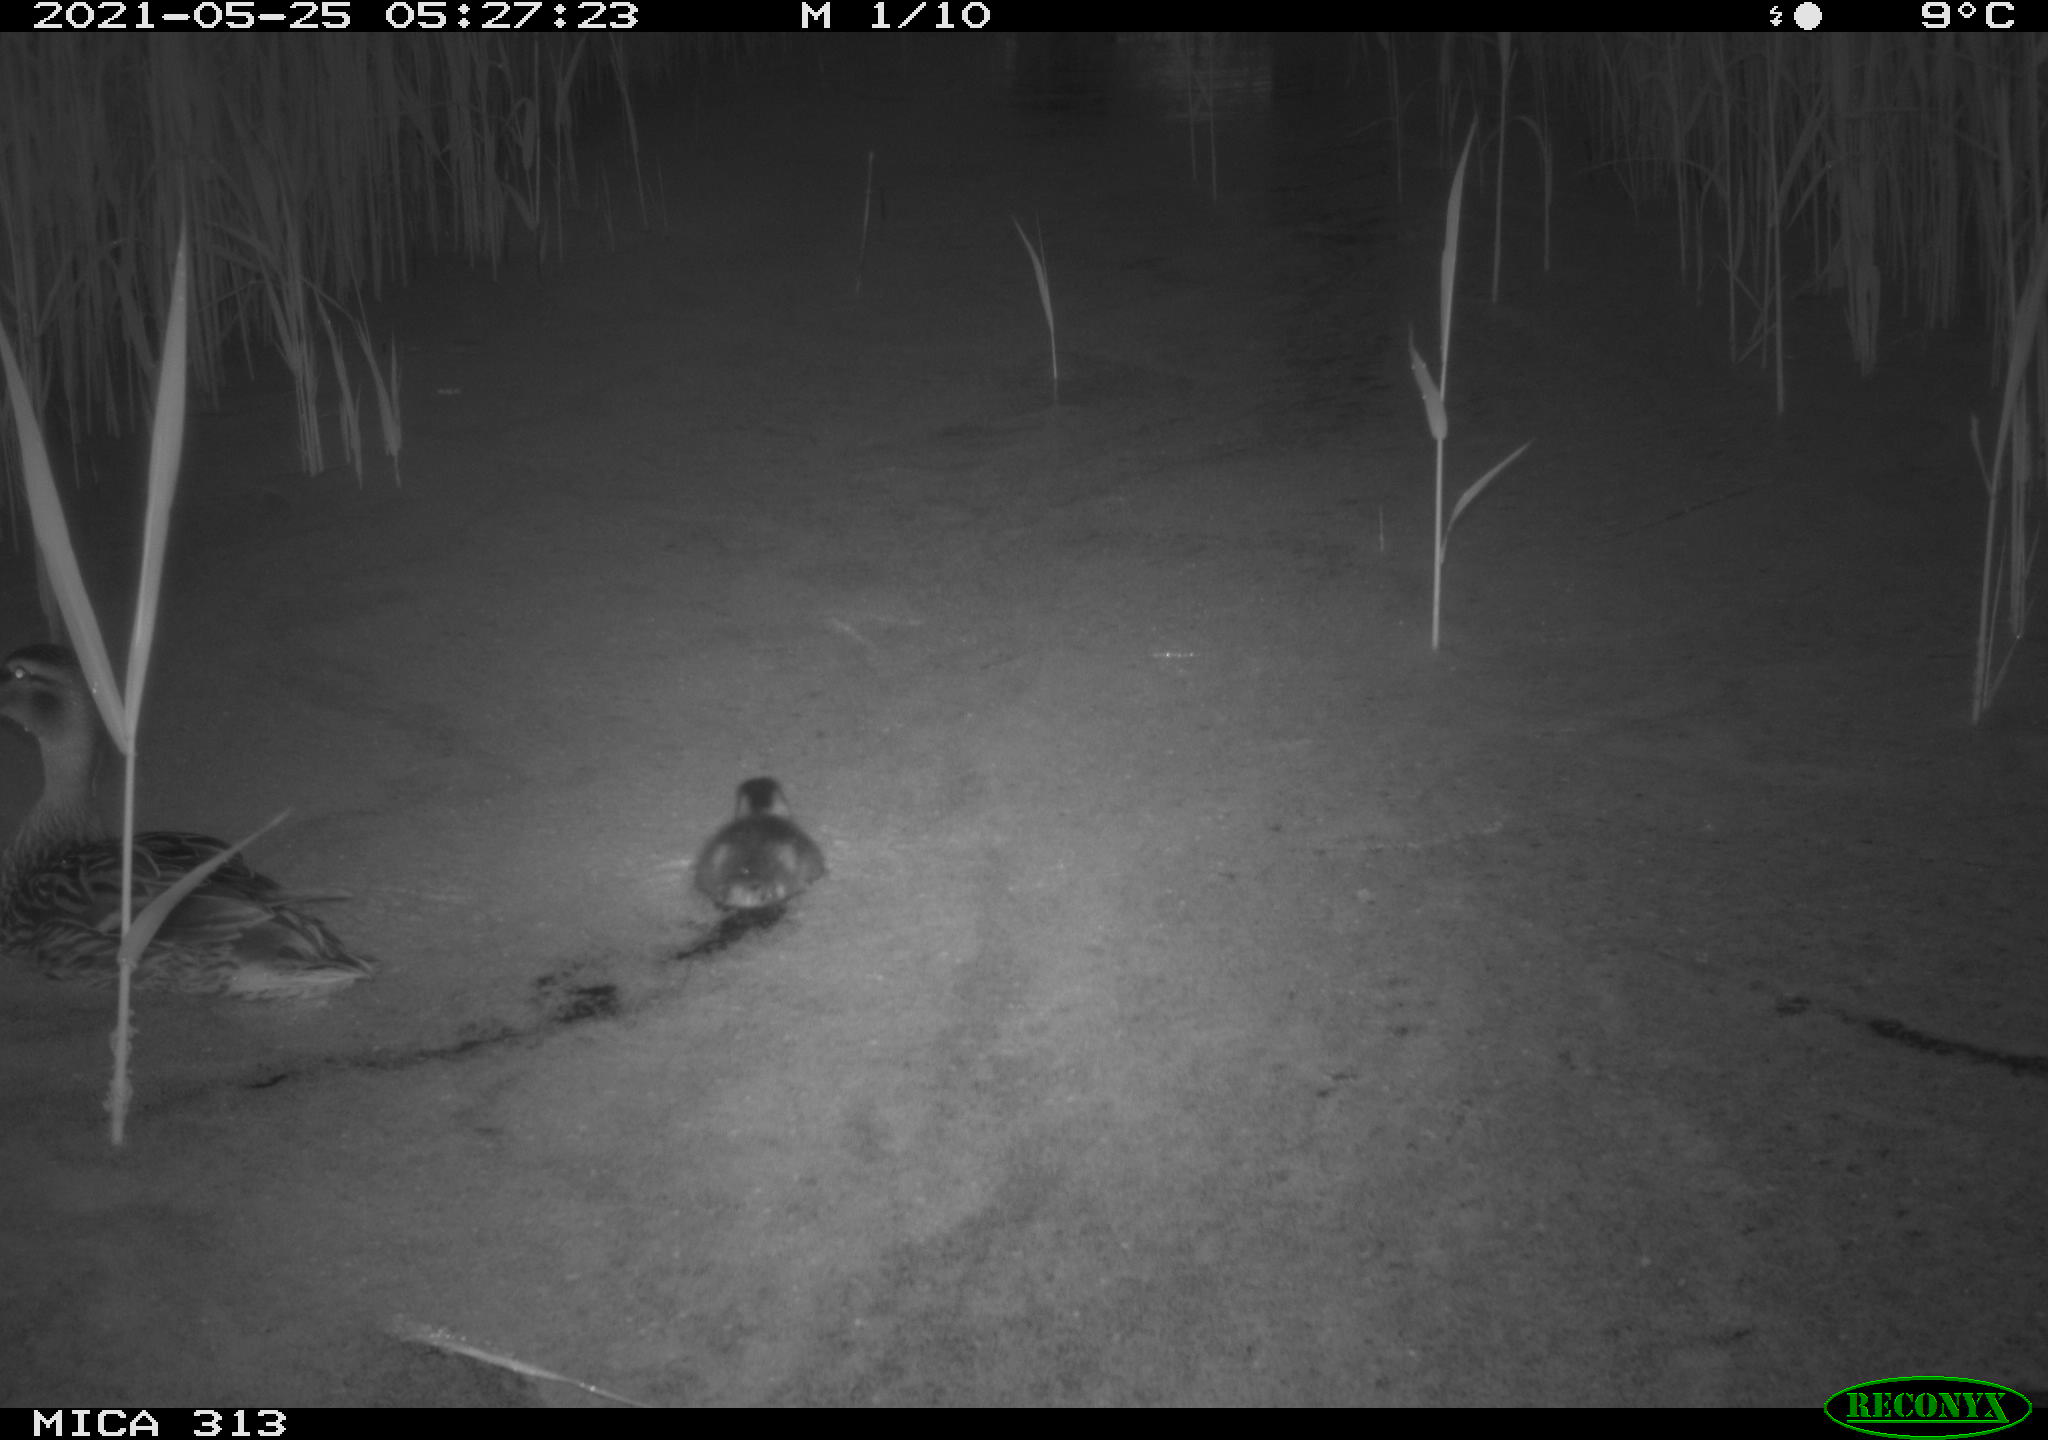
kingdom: Animalia
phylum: Chordata
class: Aves
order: Anseriformes
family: Anatidae
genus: Anas
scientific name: Anas platyrhynchos
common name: Mallard
